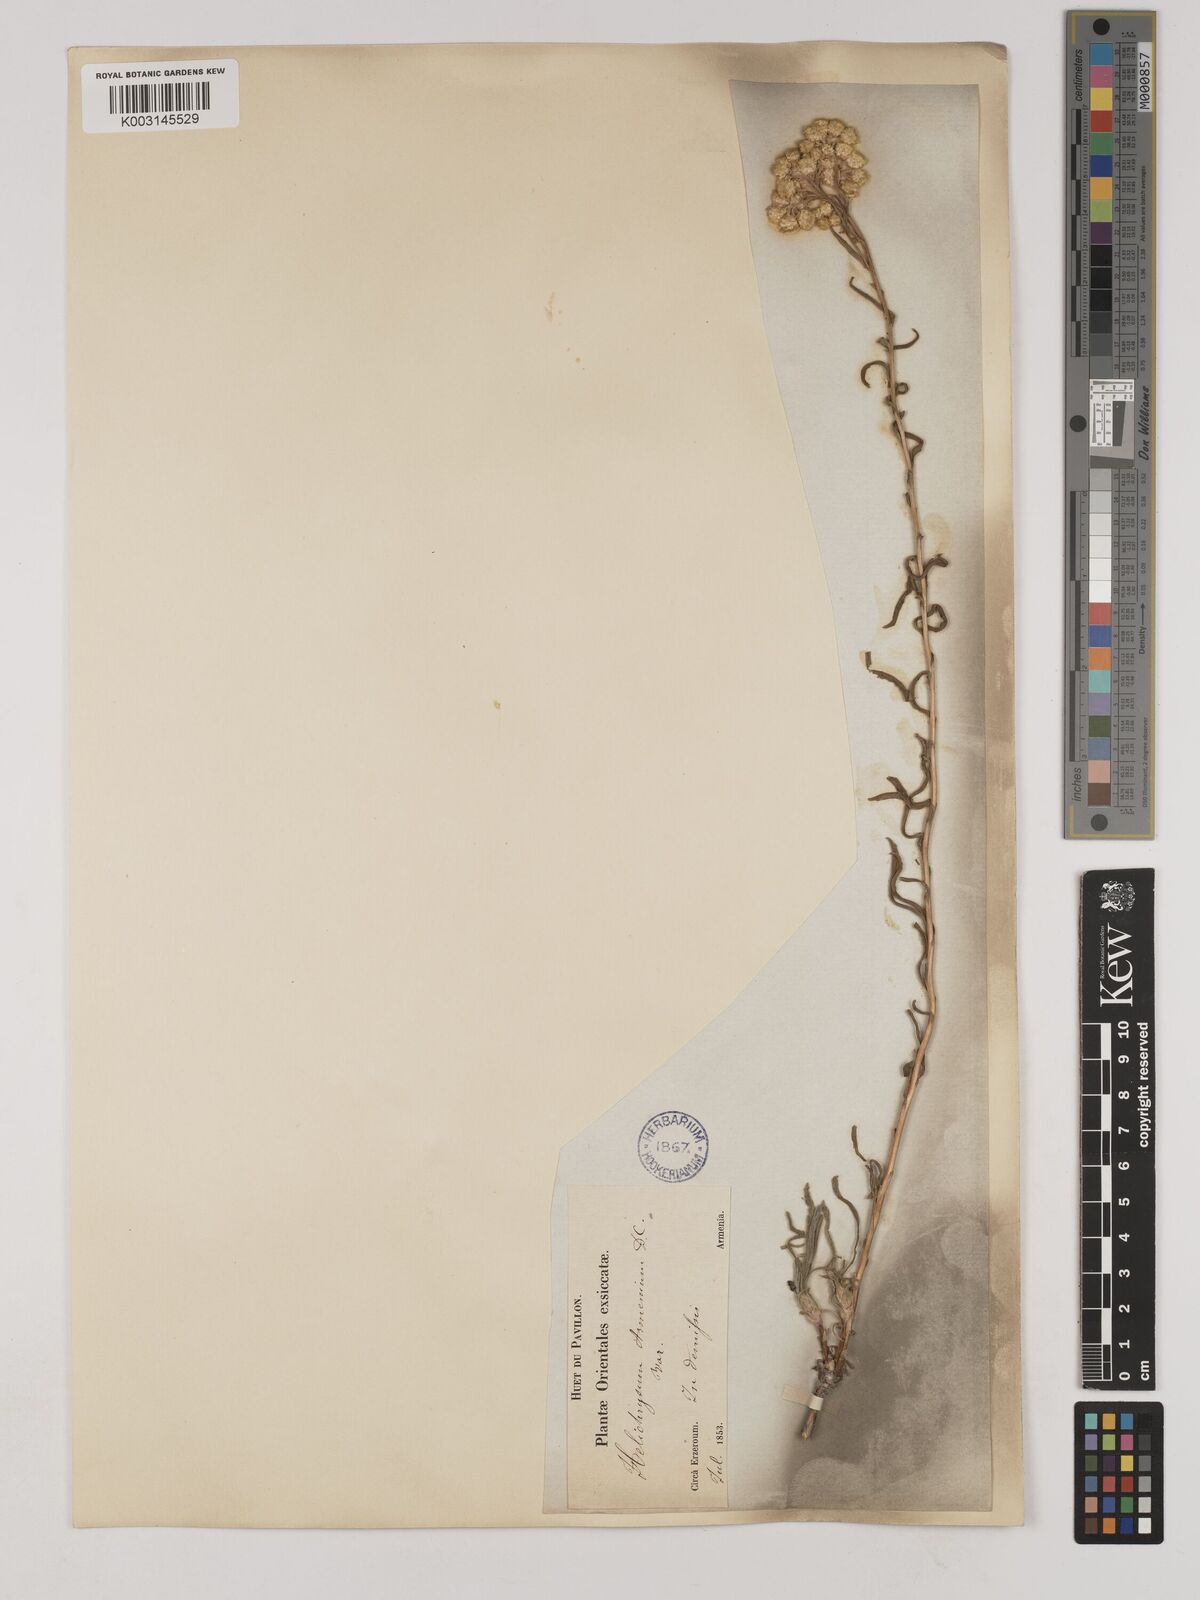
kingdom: Plantae
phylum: Tracheophyta
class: Magnoliopsida
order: Asterales
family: Asteraceae
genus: Helichrysum
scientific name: Helichrysum armenium
